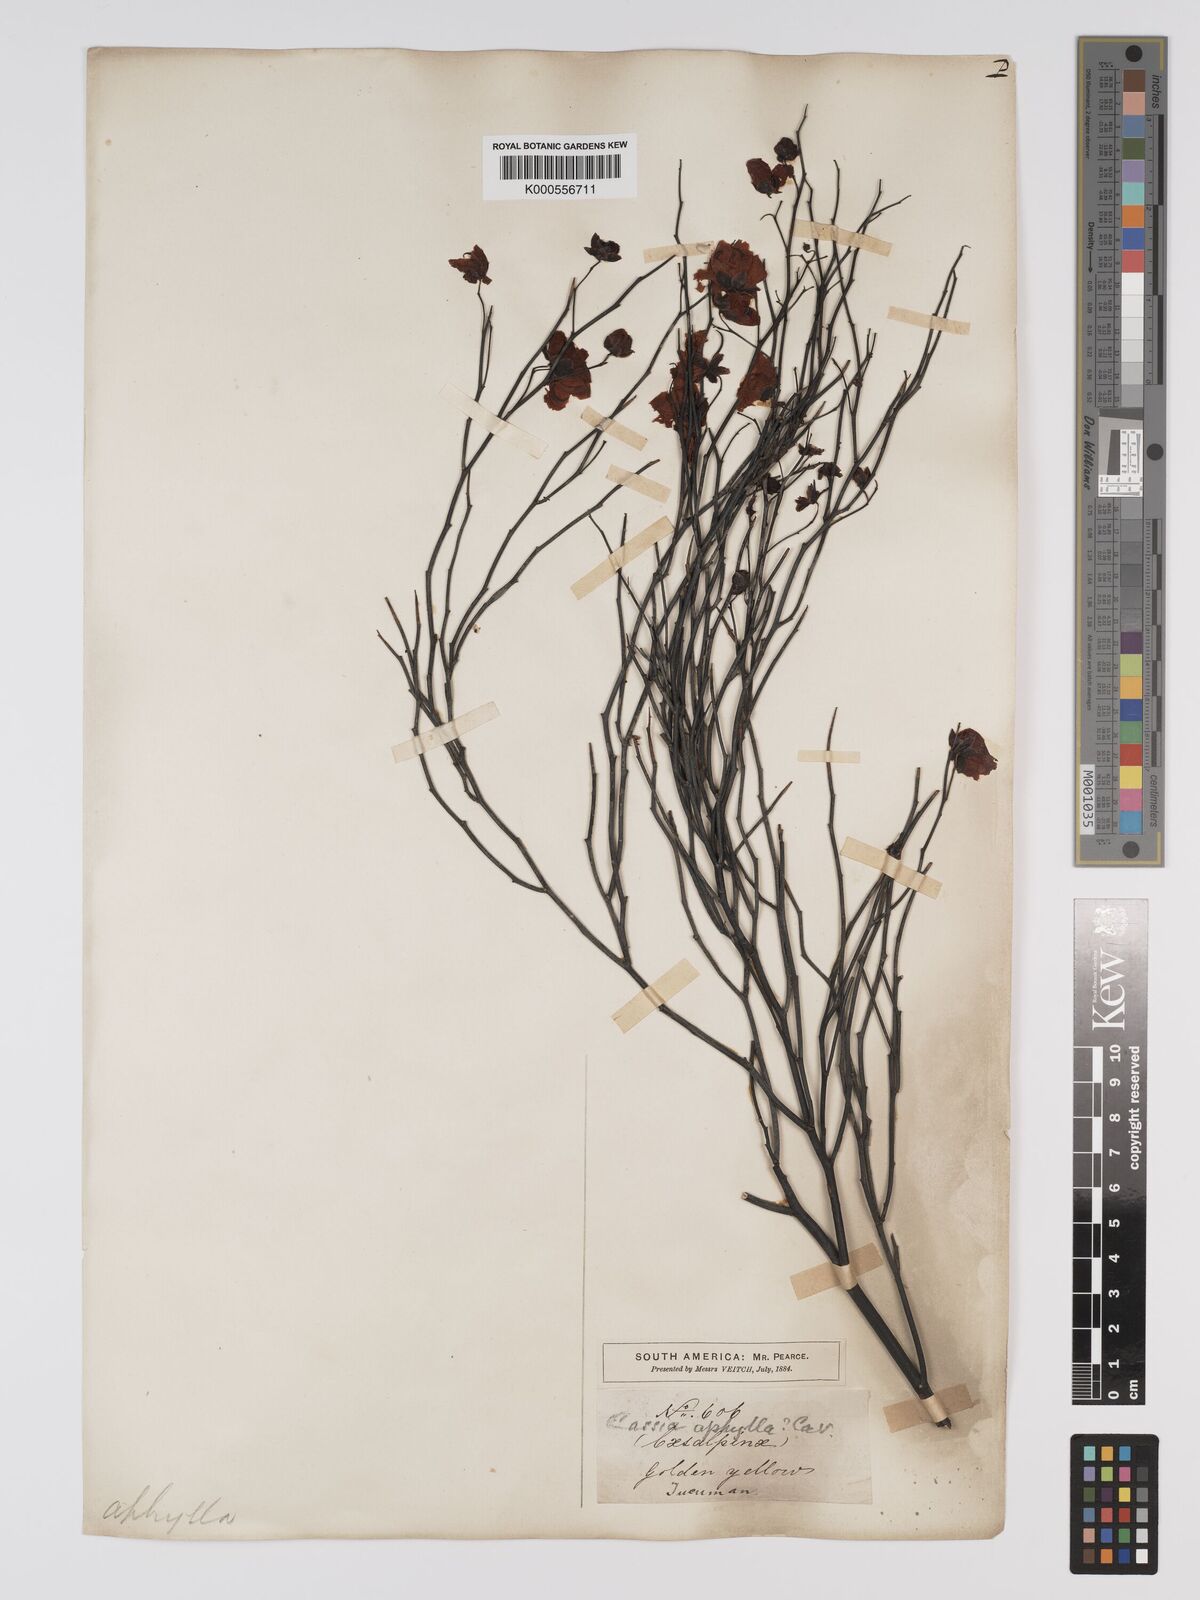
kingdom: Plantae
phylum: Tracheophyta
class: Magnoliopsida
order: Fabales
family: Fabaceae
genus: Senna
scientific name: Senna aphylla
